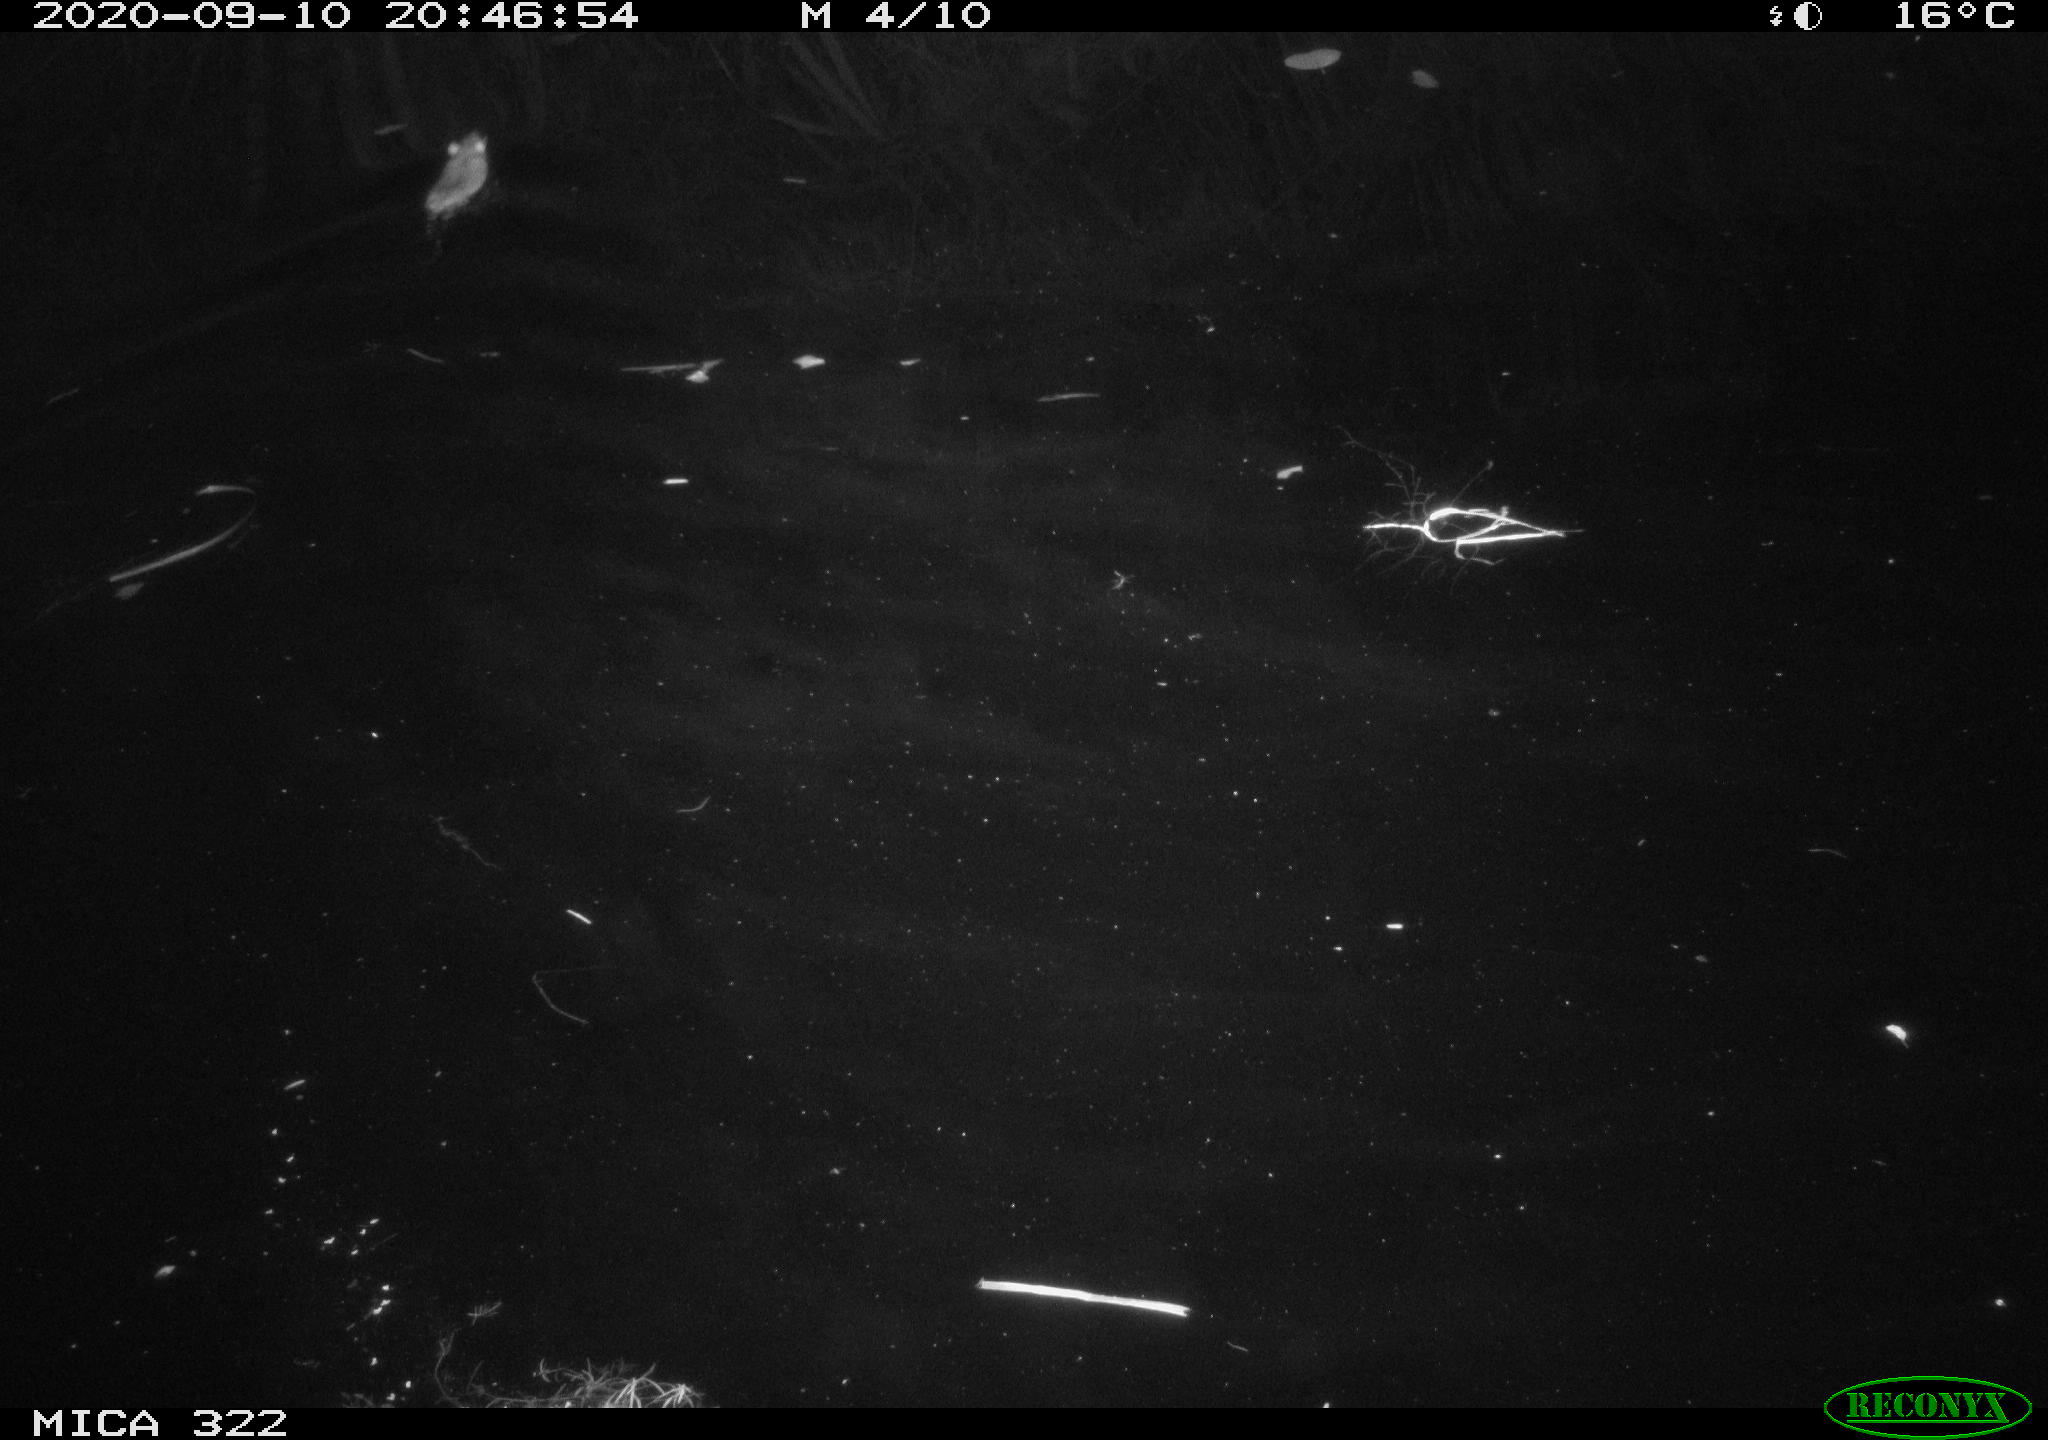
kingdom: Animalia
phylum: Chordata
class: Mammalia
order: Rodentia
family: Muridae
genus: Rattus
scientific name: Rattus norvegicus
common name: Brown rat
